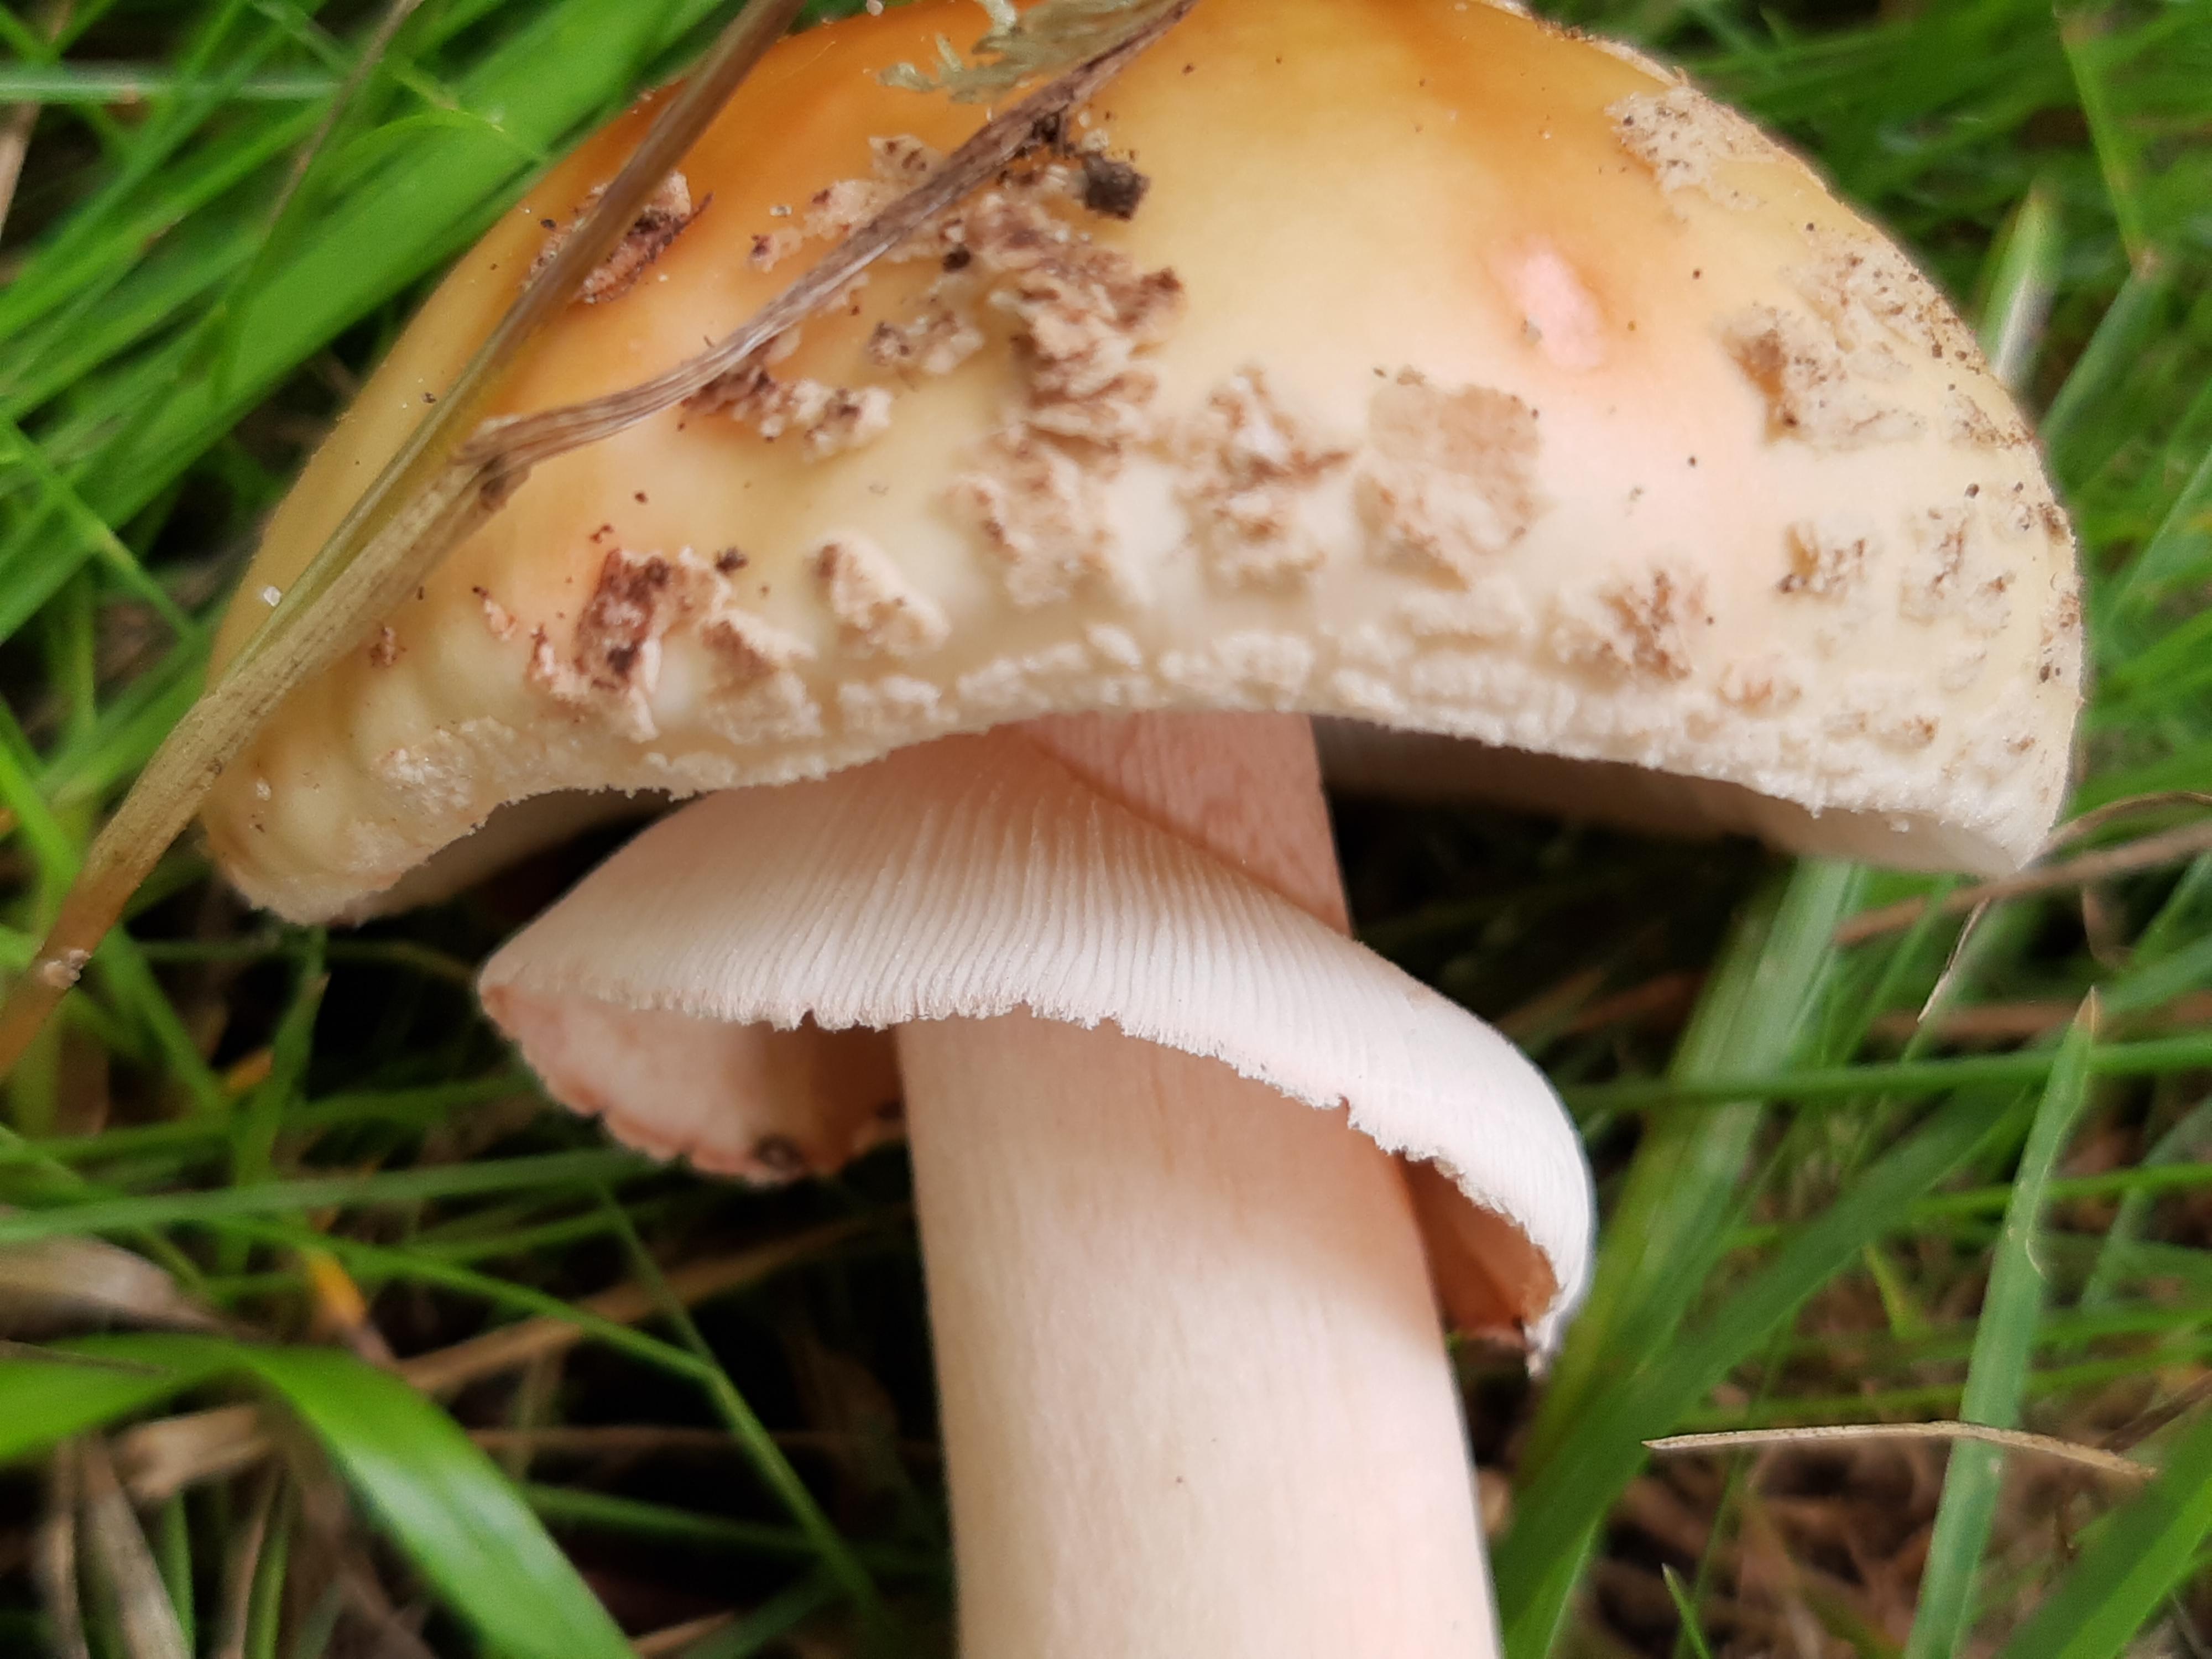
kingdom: Fungi
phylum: Basidiomycota
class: Agaricomycetes
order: Agaricales
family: Amanitaceae
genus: Amanita
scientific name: Amanita rubescens
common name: rødmende fluesvamp
